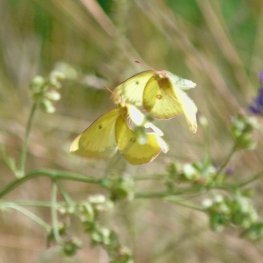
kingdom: Animalia
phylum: Arthropoda
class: Insecta
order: Lepidoptera
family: Pieridae
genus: Colias
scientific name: Colias philodice
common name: Clouded Sulphur
